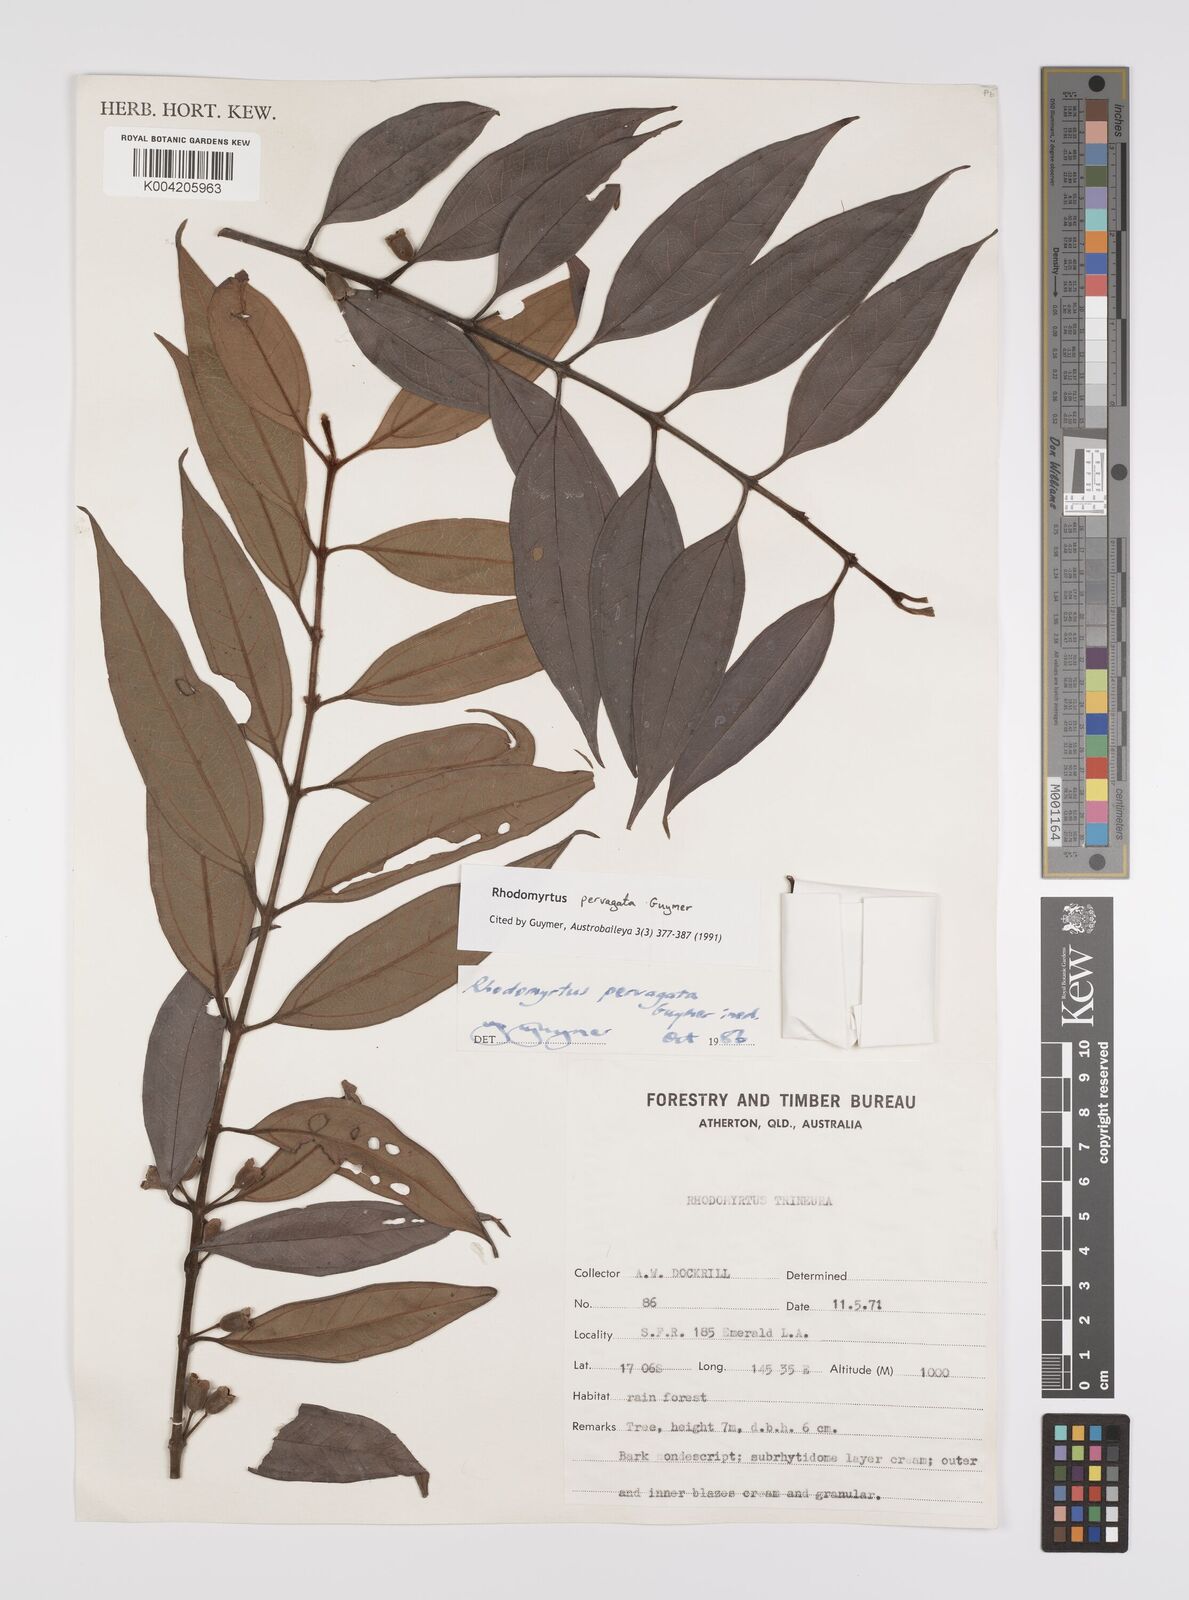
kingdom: Plantae
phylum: Tracheophyta
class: Magnoliopsida
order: Myrtales
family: Myrtaceae
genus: Rhodomyrtus
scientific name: Rhodomyrtus pervagata
